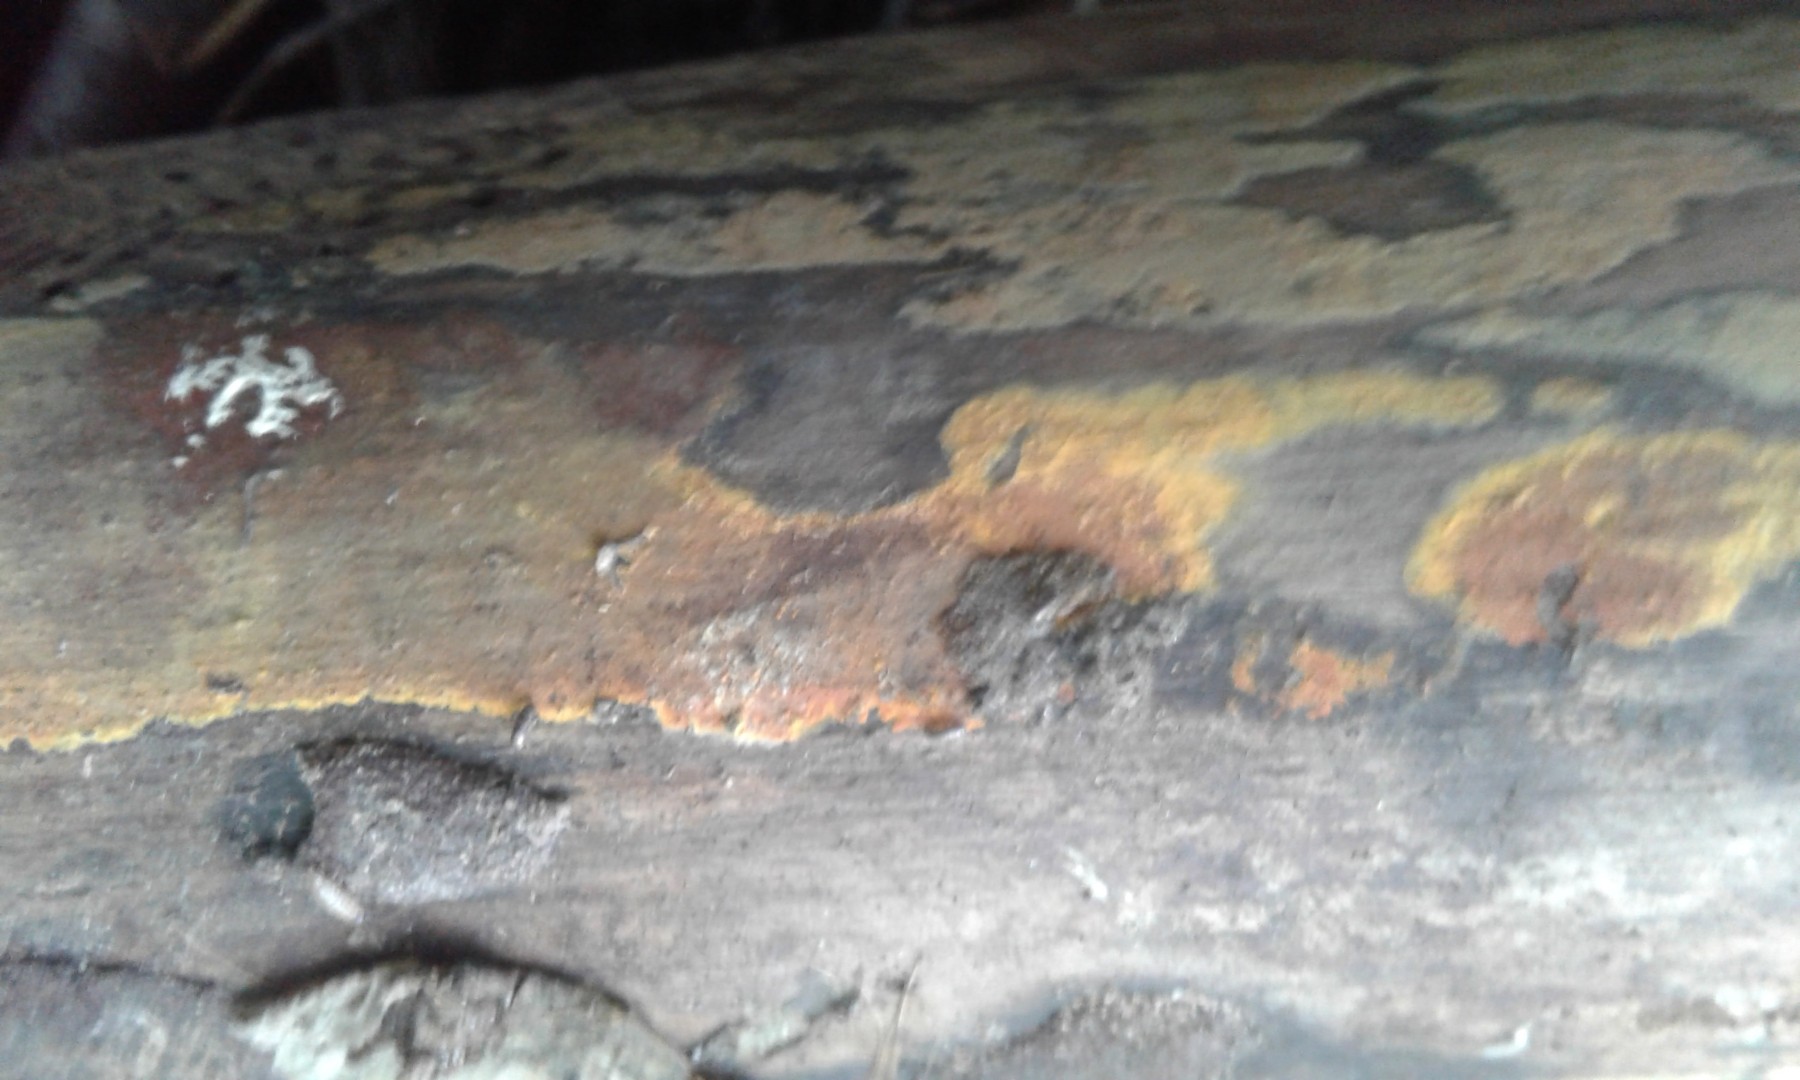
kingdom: Fungi
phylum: Ascomycota
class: Sordariomycetes
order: Xylariales
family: Hypoxylaceae
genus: Hypoxylon
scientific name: Hypoxylon rubiginosum
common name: rustfarvet kulbær
